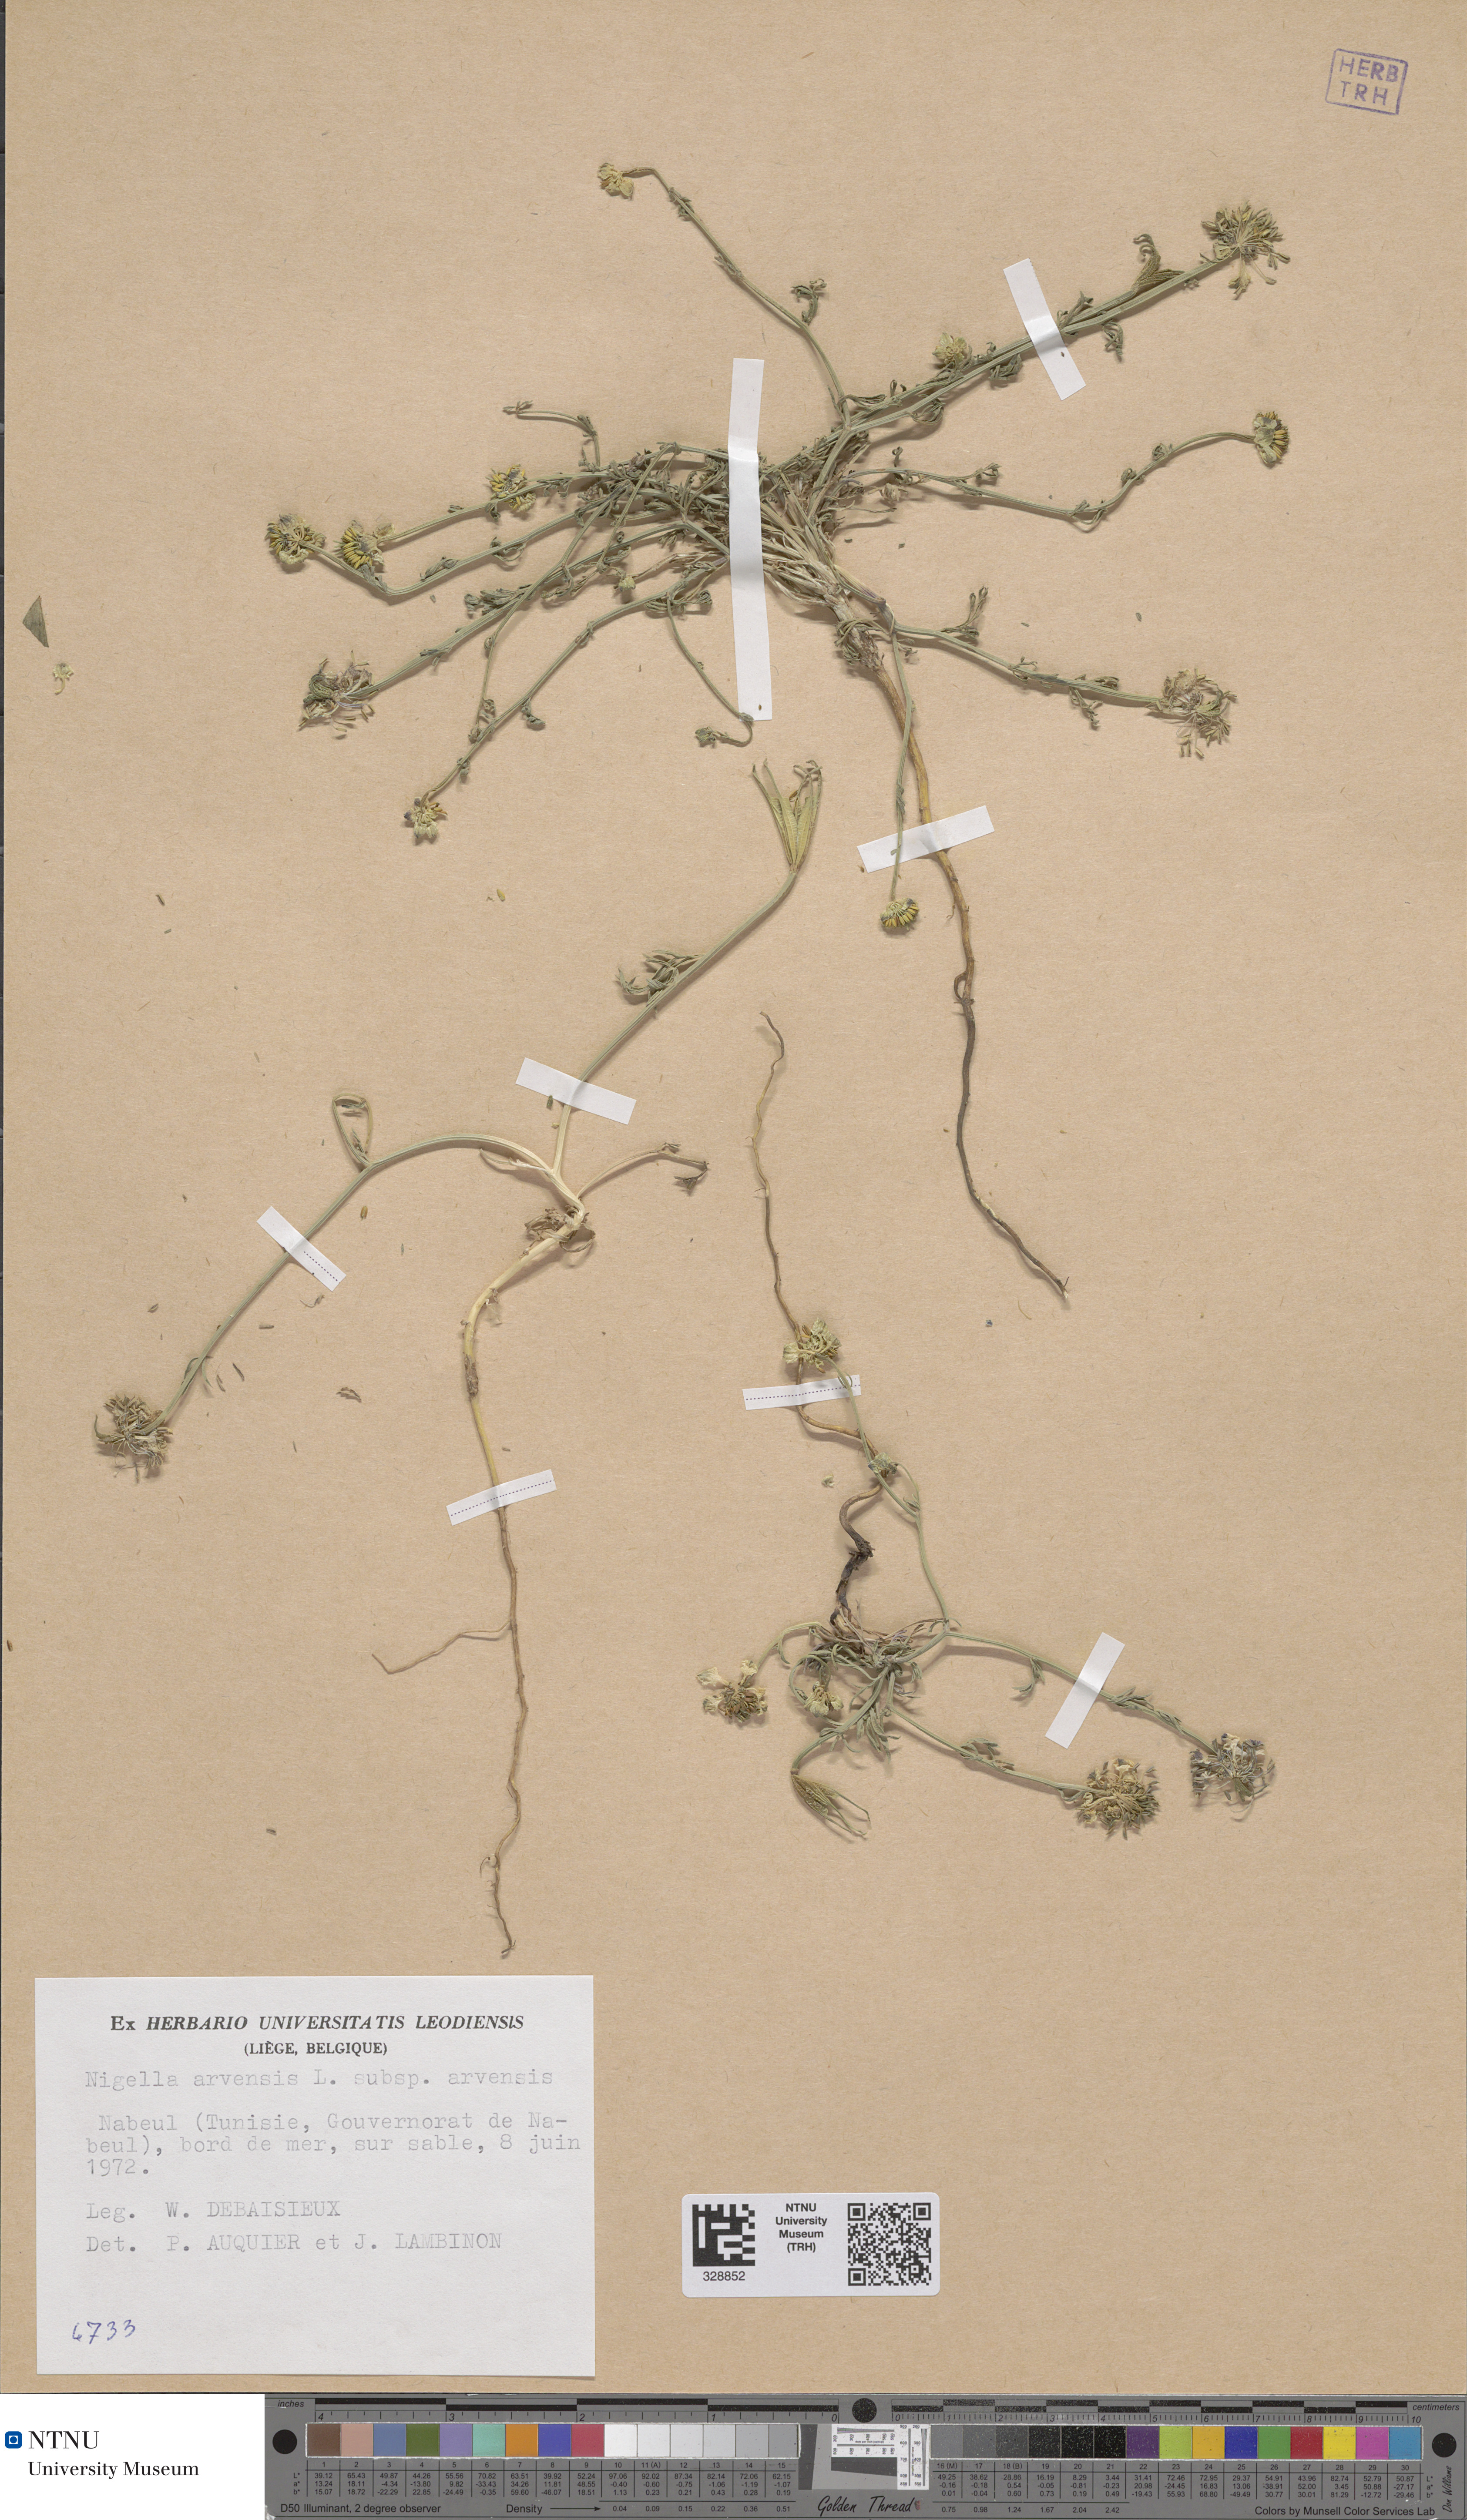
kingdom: Plantae
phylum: Tracheophyta
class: Magnoliopsida
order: Ranunculales
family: Ranunculaceae
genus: Nigella
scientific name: Nigella arvensis
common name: Wild fennel-flower
